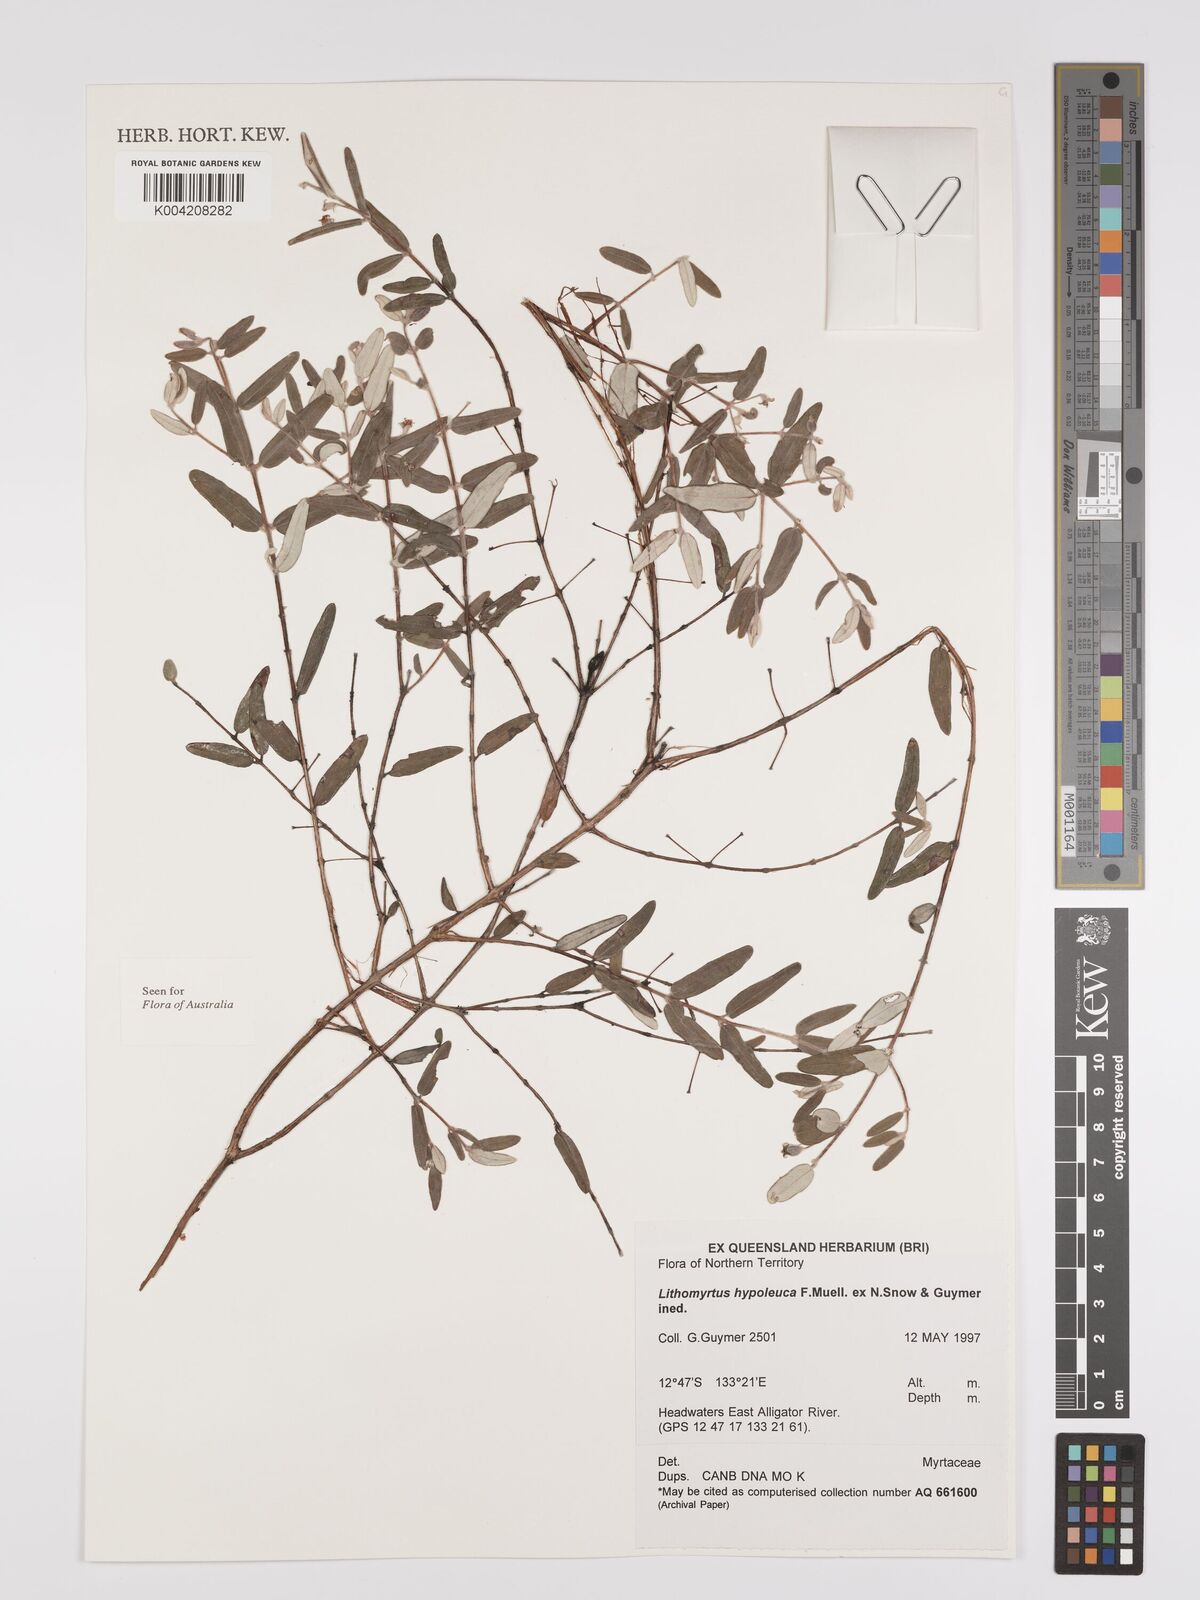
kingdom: Plantae
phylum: Tracheophyta
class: Magnoliopsida
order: Myrtales
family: Myrtaceae
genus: Lithomyrtus
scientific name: Lithomyrtus hypoleuca
